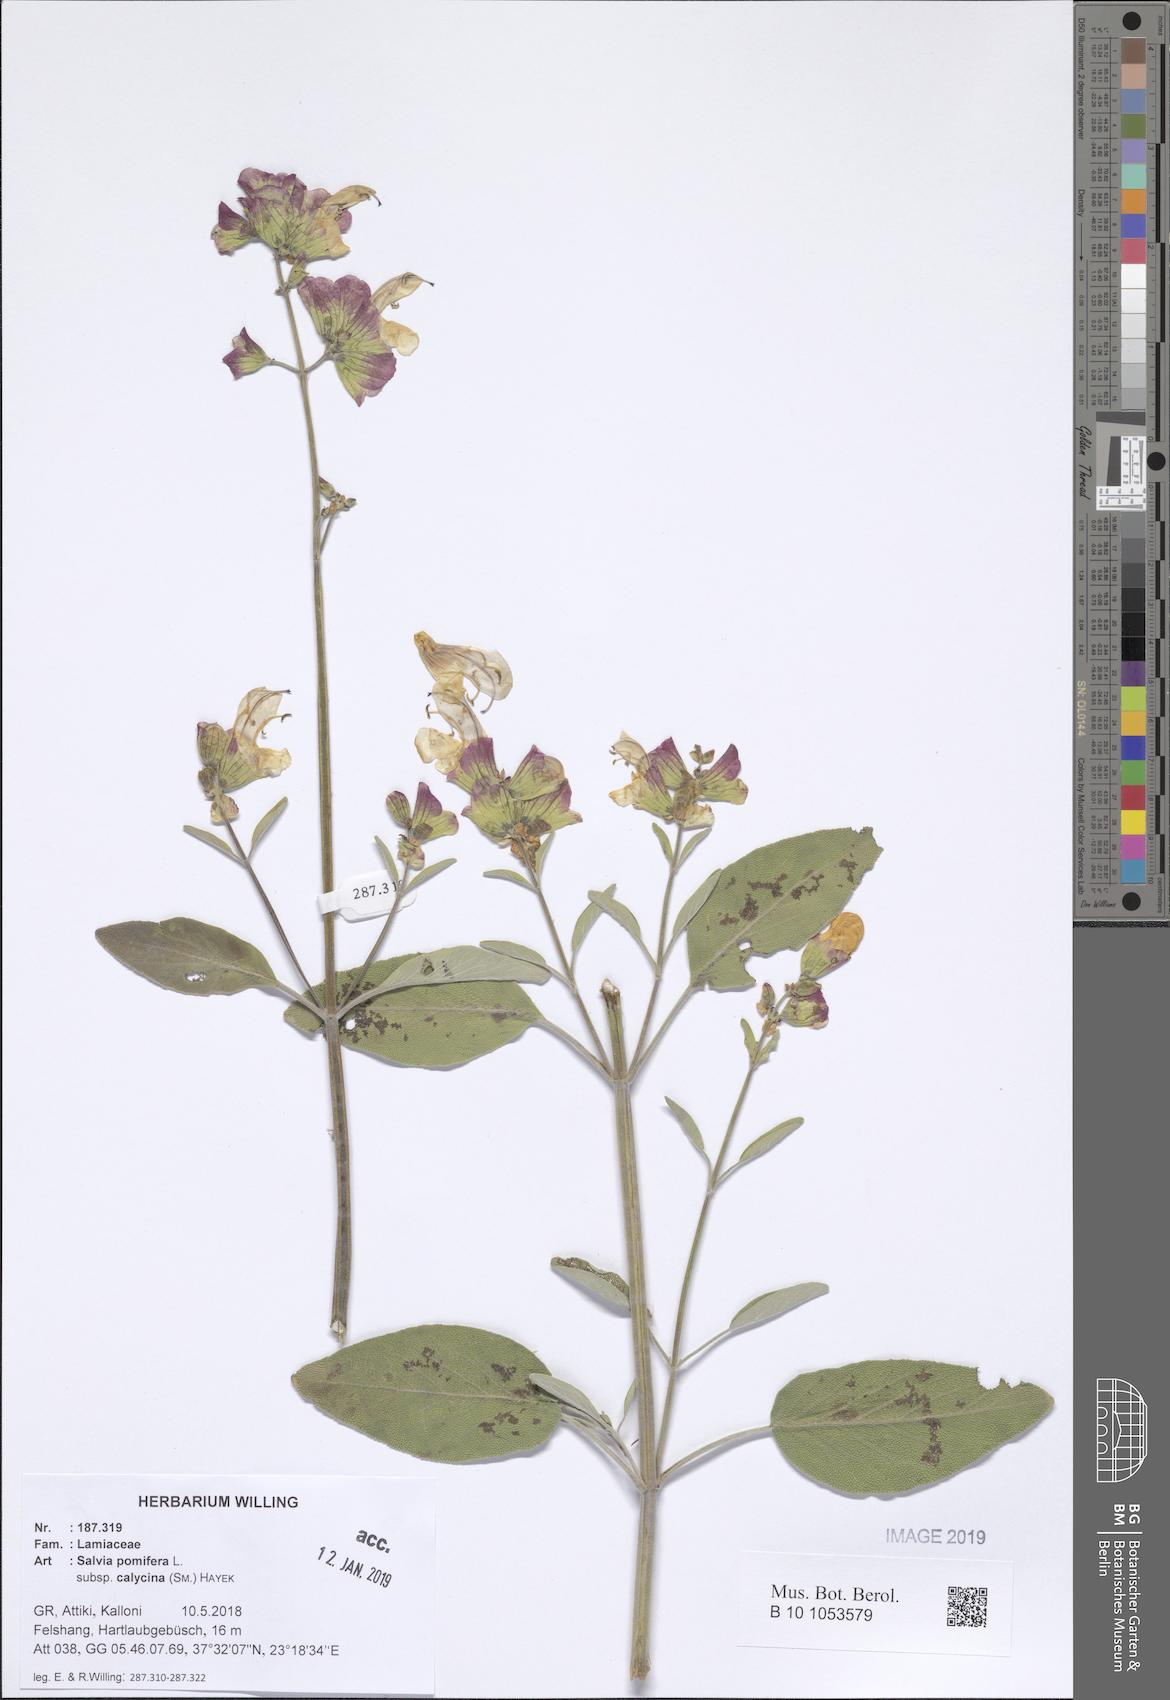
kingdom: Plantae
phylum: Tracheophyta
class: Magnoliopsida
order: Lamiales
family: Lamiaceae
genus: Salvia
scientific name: Salvia pomifera
